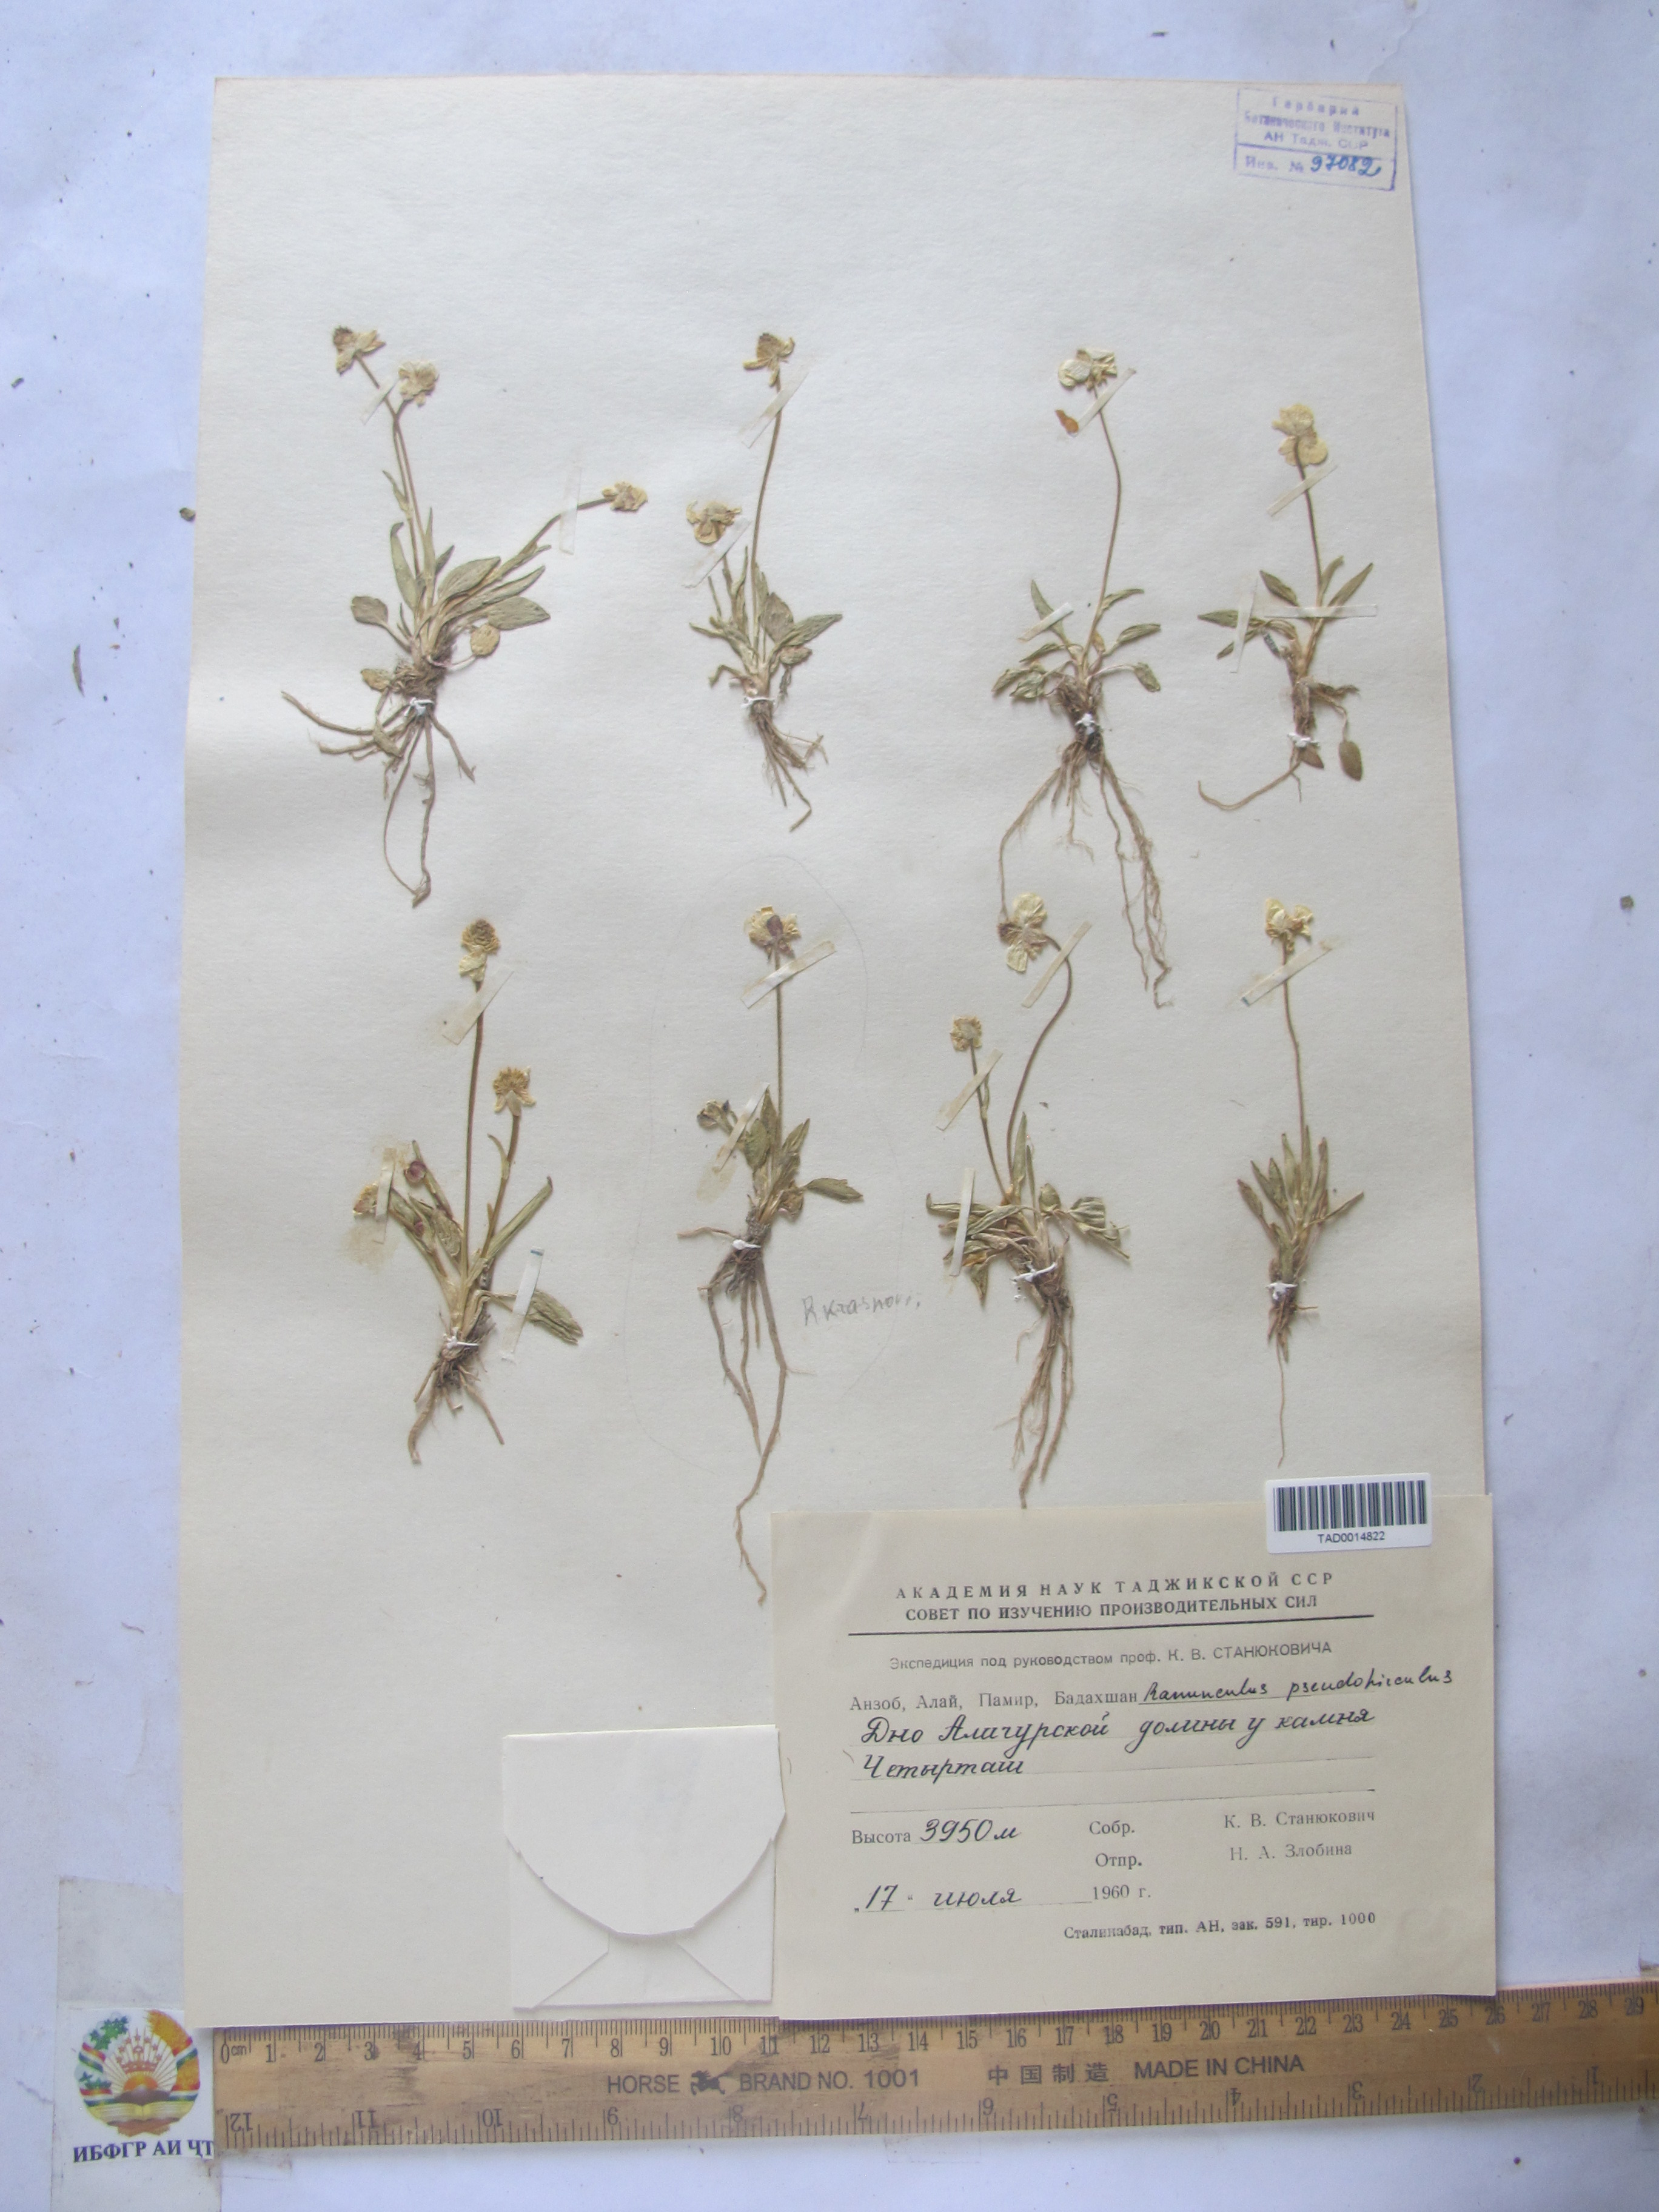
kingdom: Plantae
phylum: Tracheophyta
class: Magnoliopsida
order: Ranunculales
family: Ranunculaceae
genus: Ranunculus
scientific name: Ranunculus pseudohirculus
